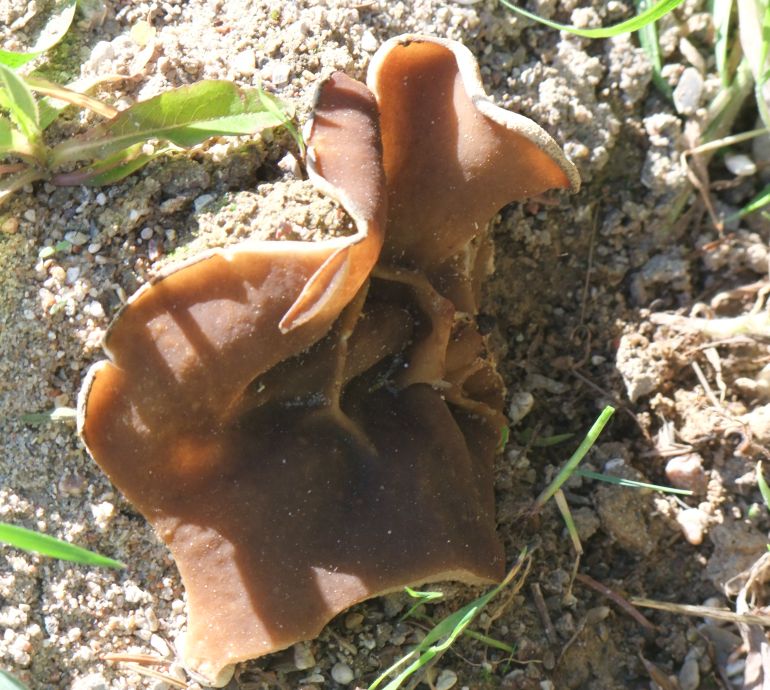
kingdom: Fungi
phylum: Ascomycota
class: Pezizomycetes
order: Pezizales
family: Morchellaceae
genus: Disciotis
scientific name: Disciotis venosa
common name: klor-bægermorkel
